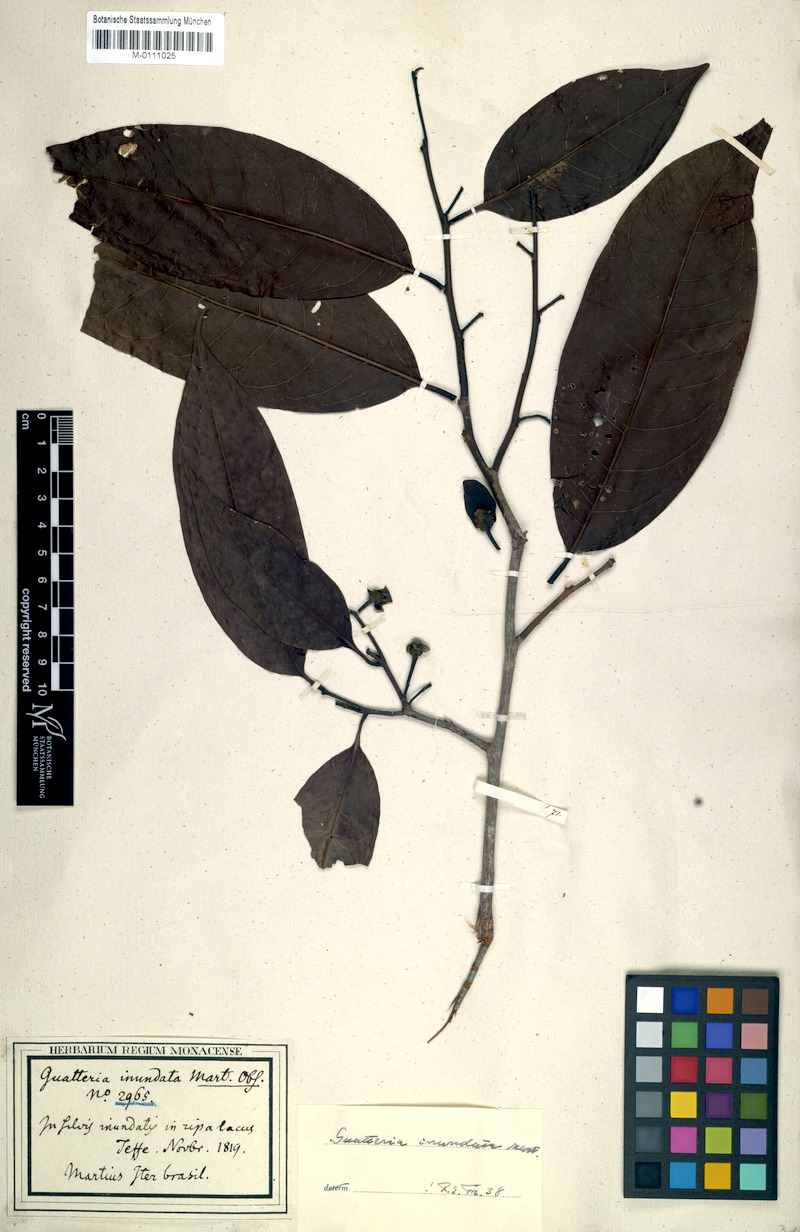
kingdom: Plantae
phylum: Tracheophyta
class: Magnoliopsida
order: Magnoliales
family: Annonaceae
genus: Guatteria
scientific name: Guatteria inundata
